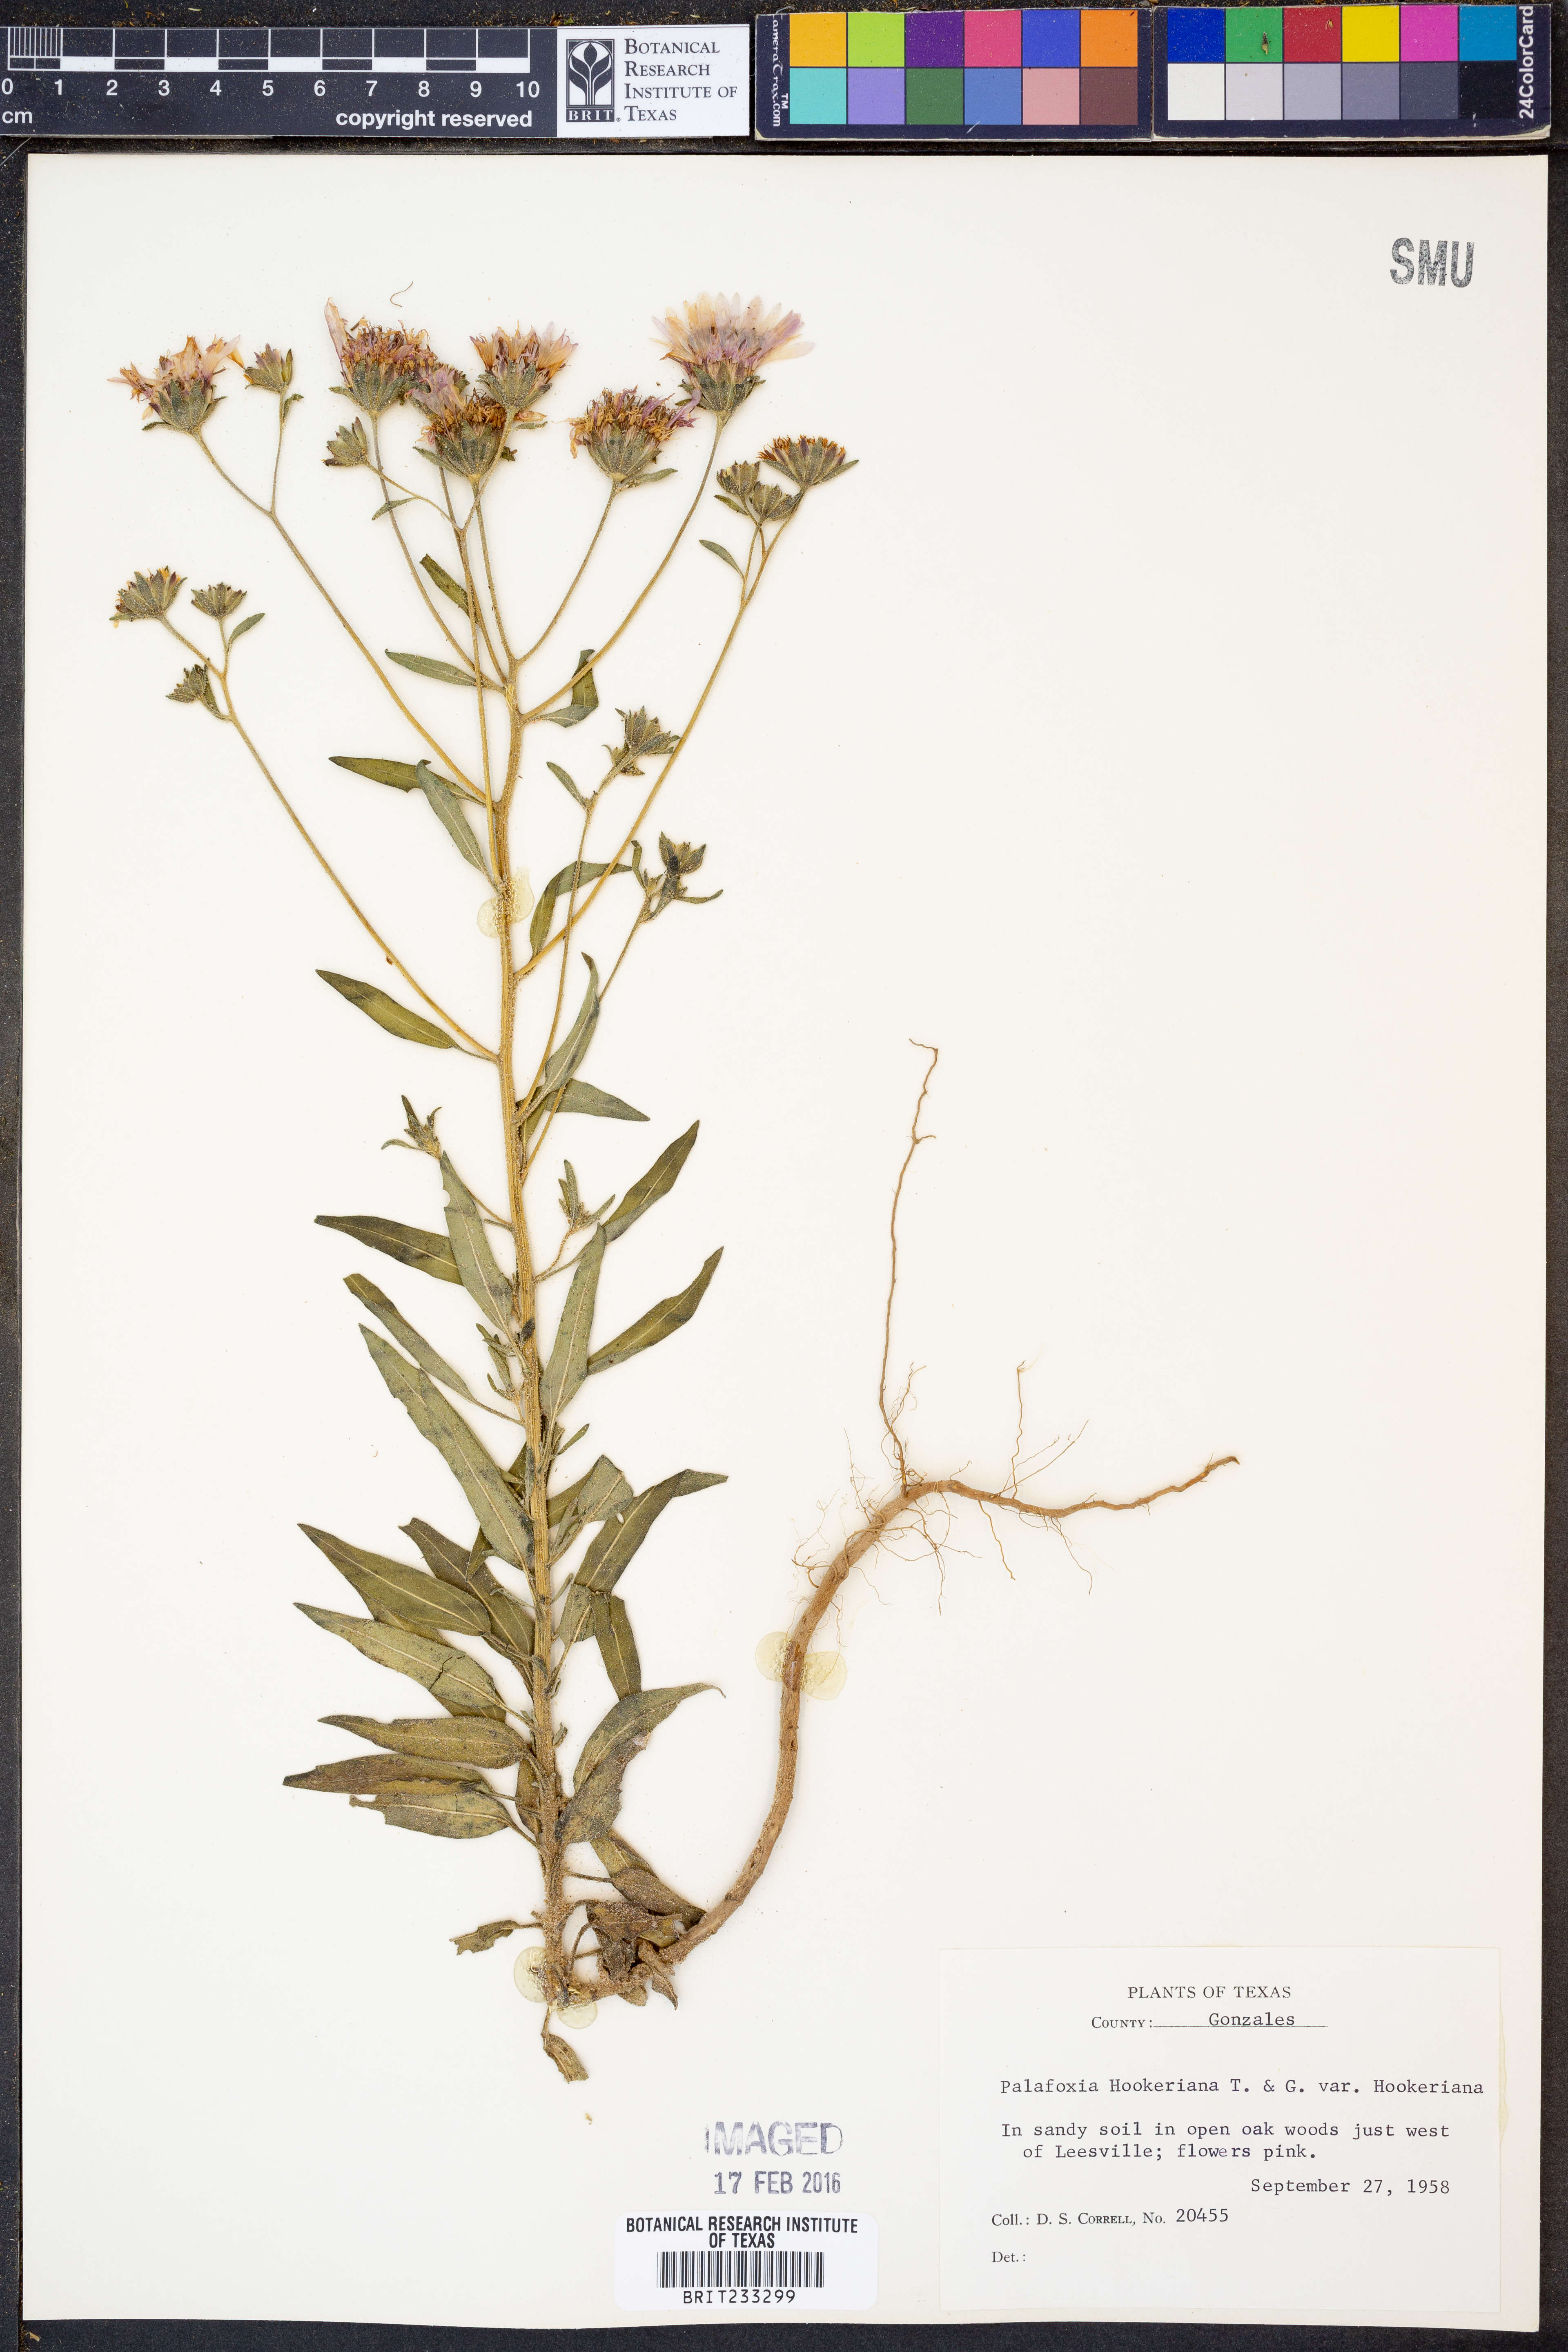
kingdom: Plantae
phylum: Tracheophyta
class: Magnoliopsida
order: Asterales
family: Asteraceae
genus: Palafoxia
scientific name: Palafoxia hookeriana
